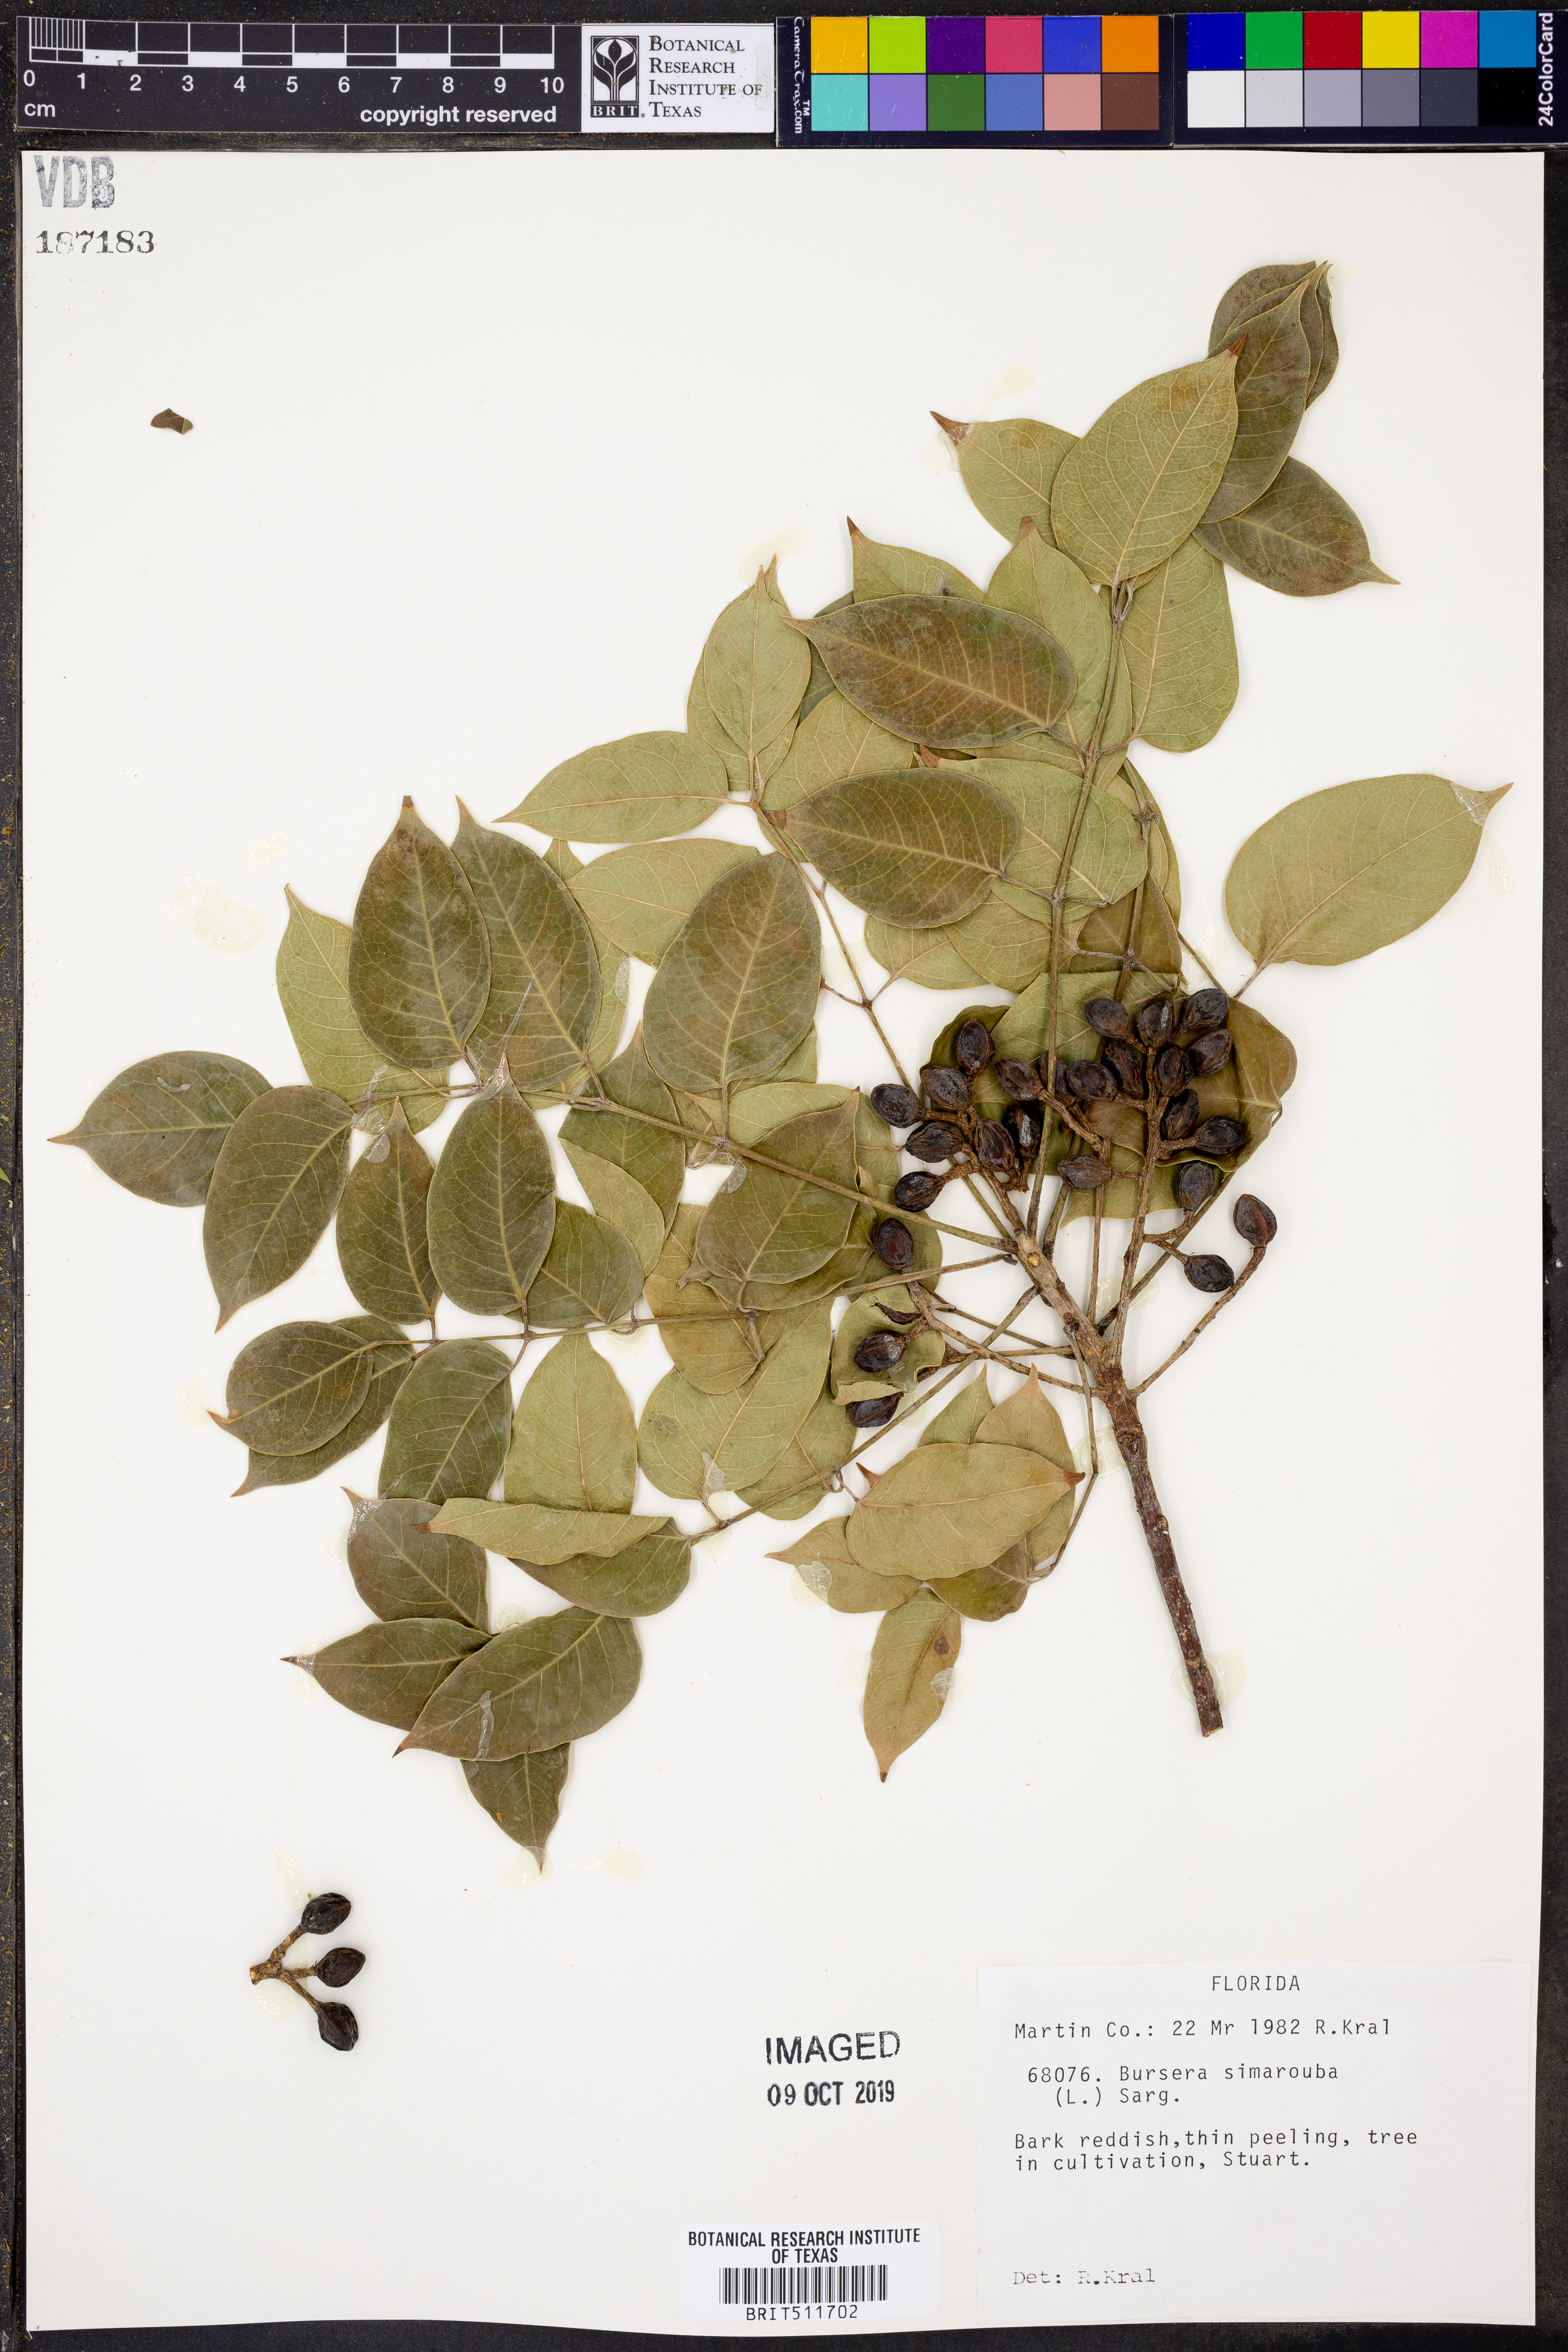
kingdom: Plantae
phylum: Tracheophyta
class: Magnoliopsida
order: Sapindales
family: Burseraceae
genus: Bursera
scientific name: Bursera simaruba
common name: Turpentine tree
